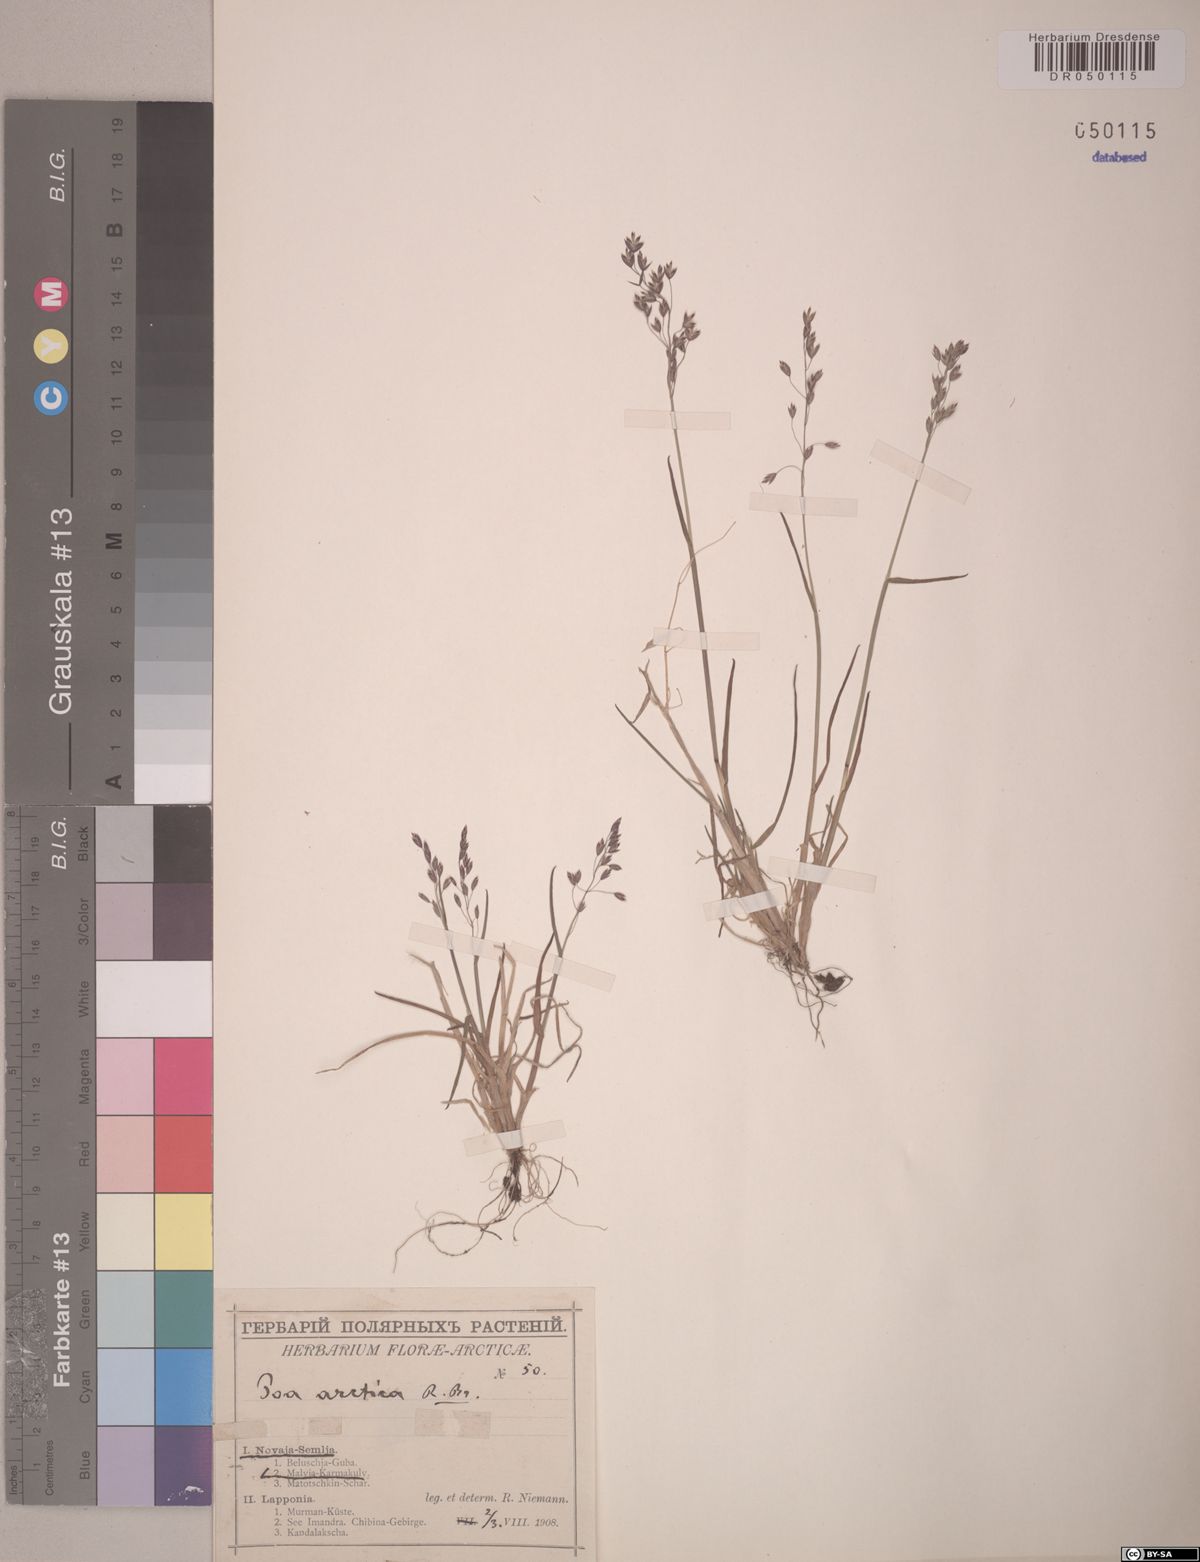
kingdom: Plantae
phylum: Tracheophyta
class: Liliopsida
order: Poales
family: Poaceae
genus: Poa
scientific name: Poa arctica
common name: Arctic bluegrass
